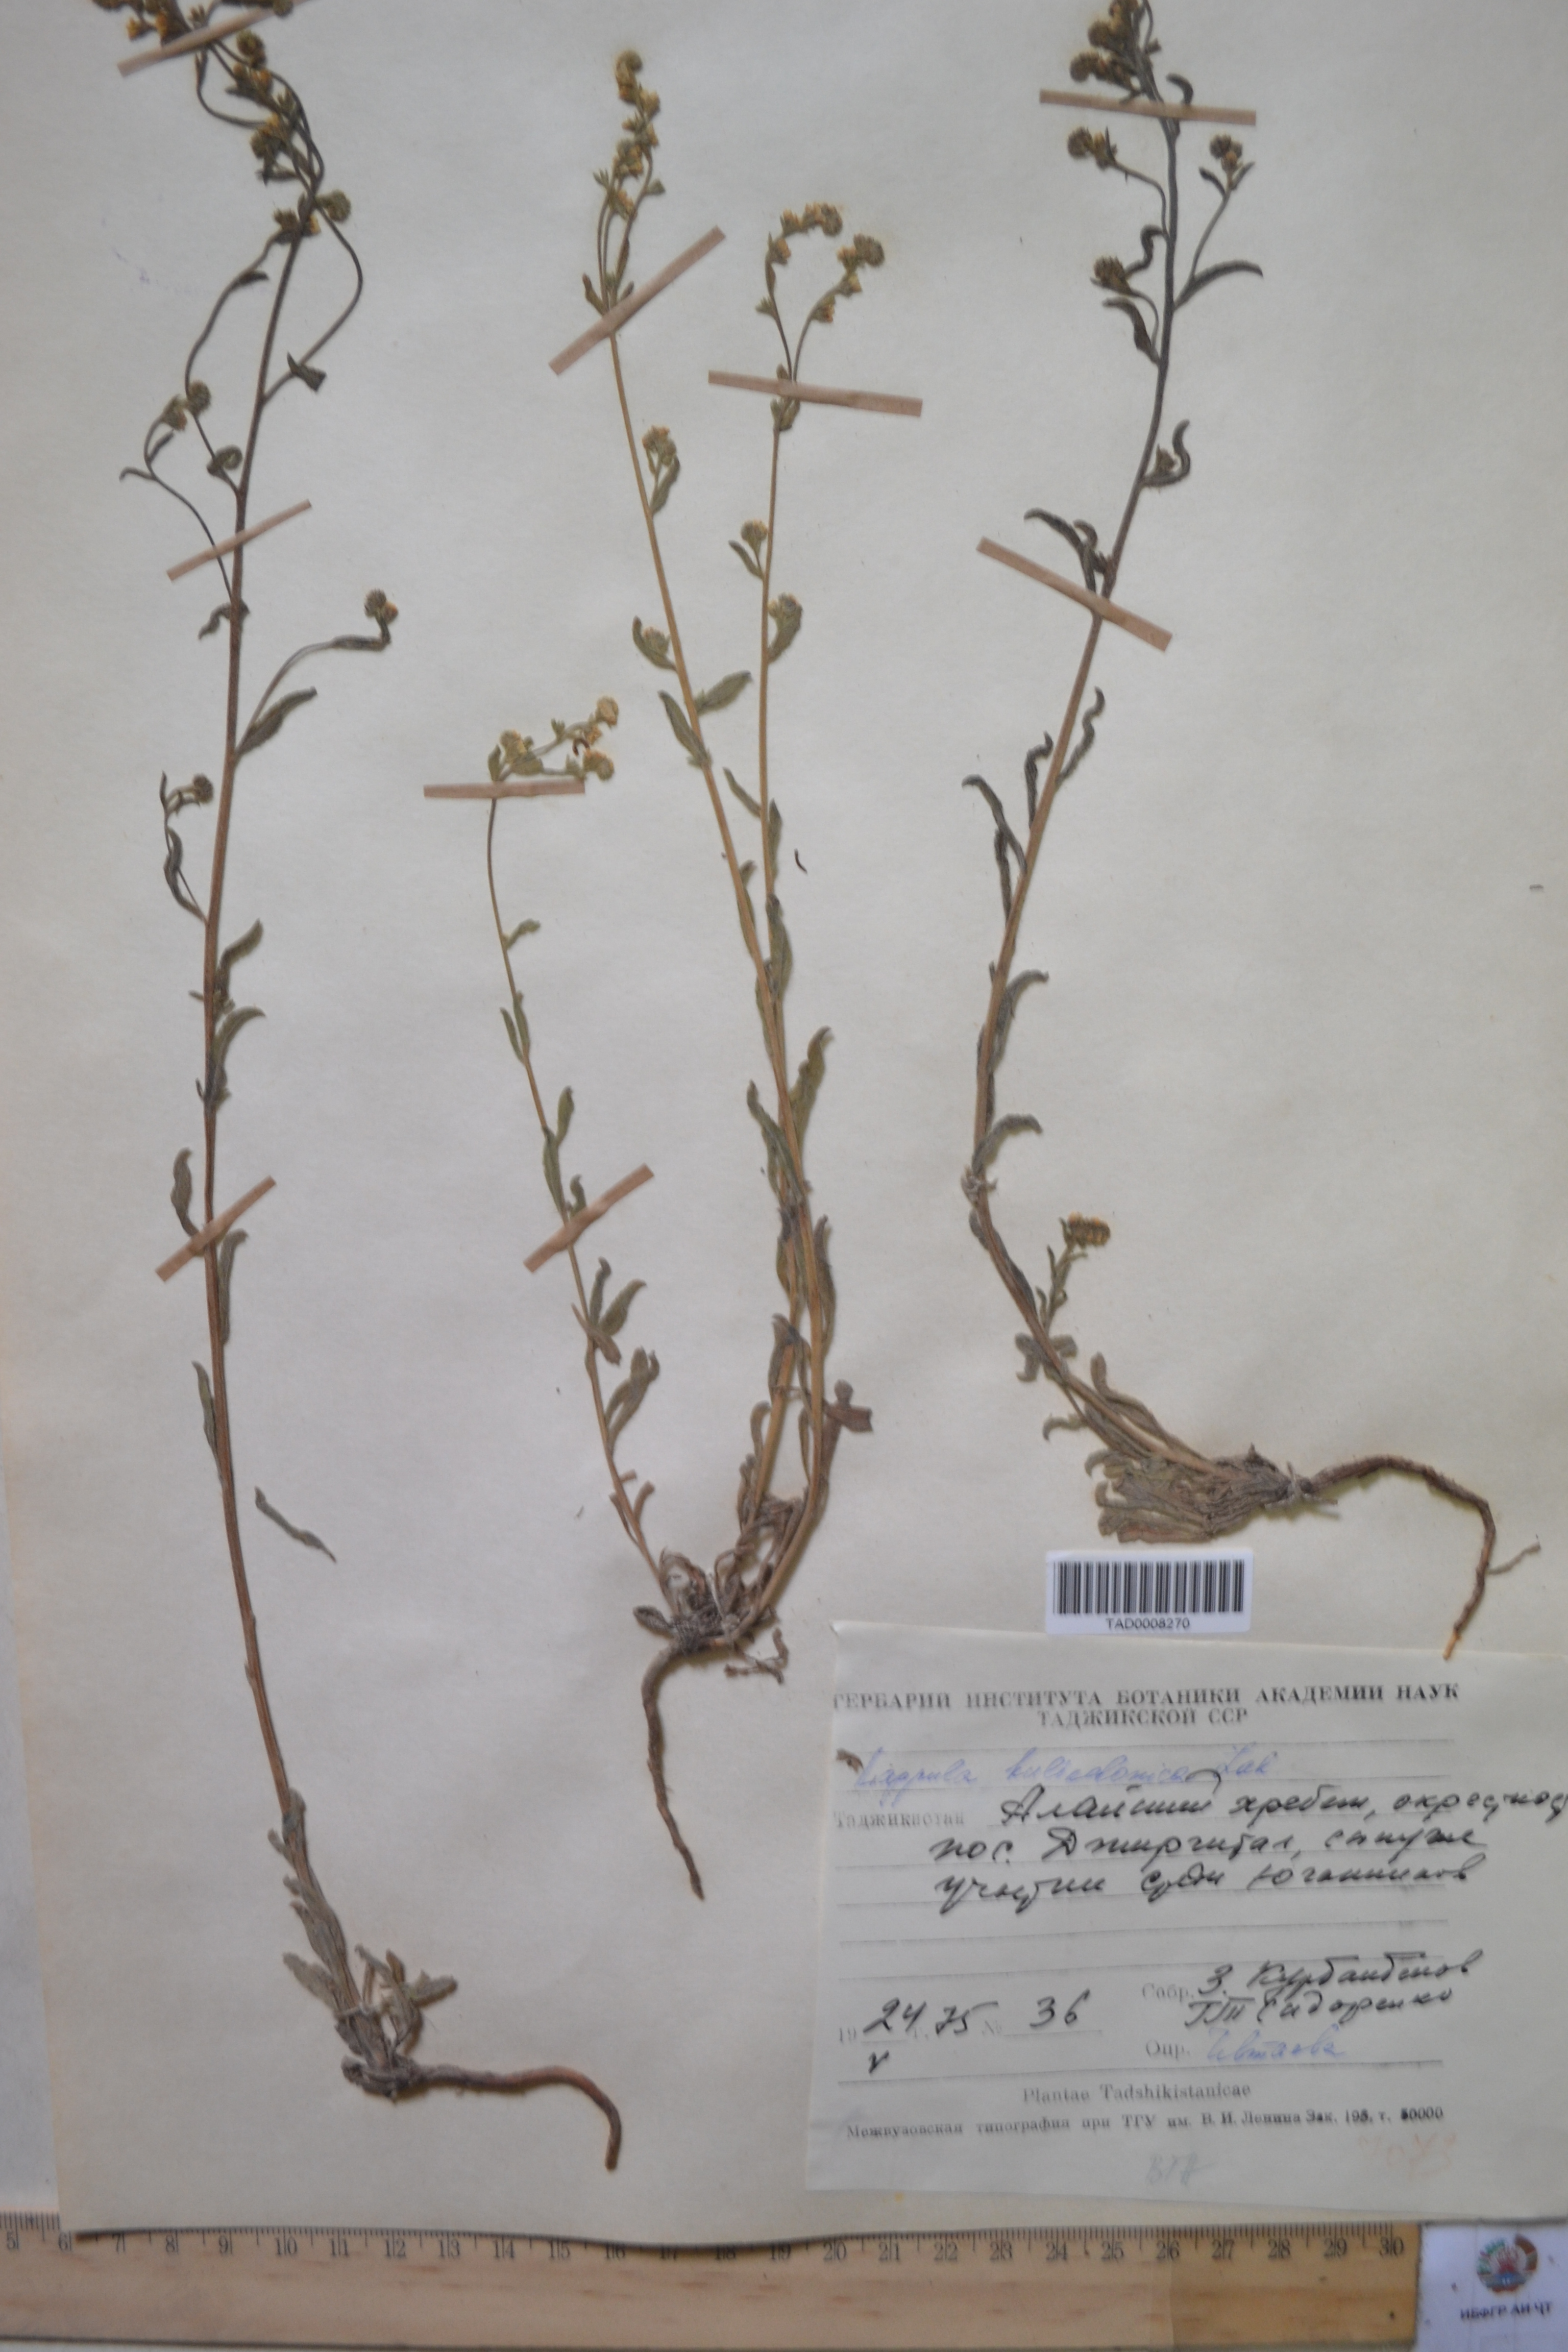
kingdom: Plantae
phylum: Tracheophyta
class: Magnoliopsida
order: Boraginales
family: Boraginaceae
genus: Lappula
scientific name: Lappula heteracantha
